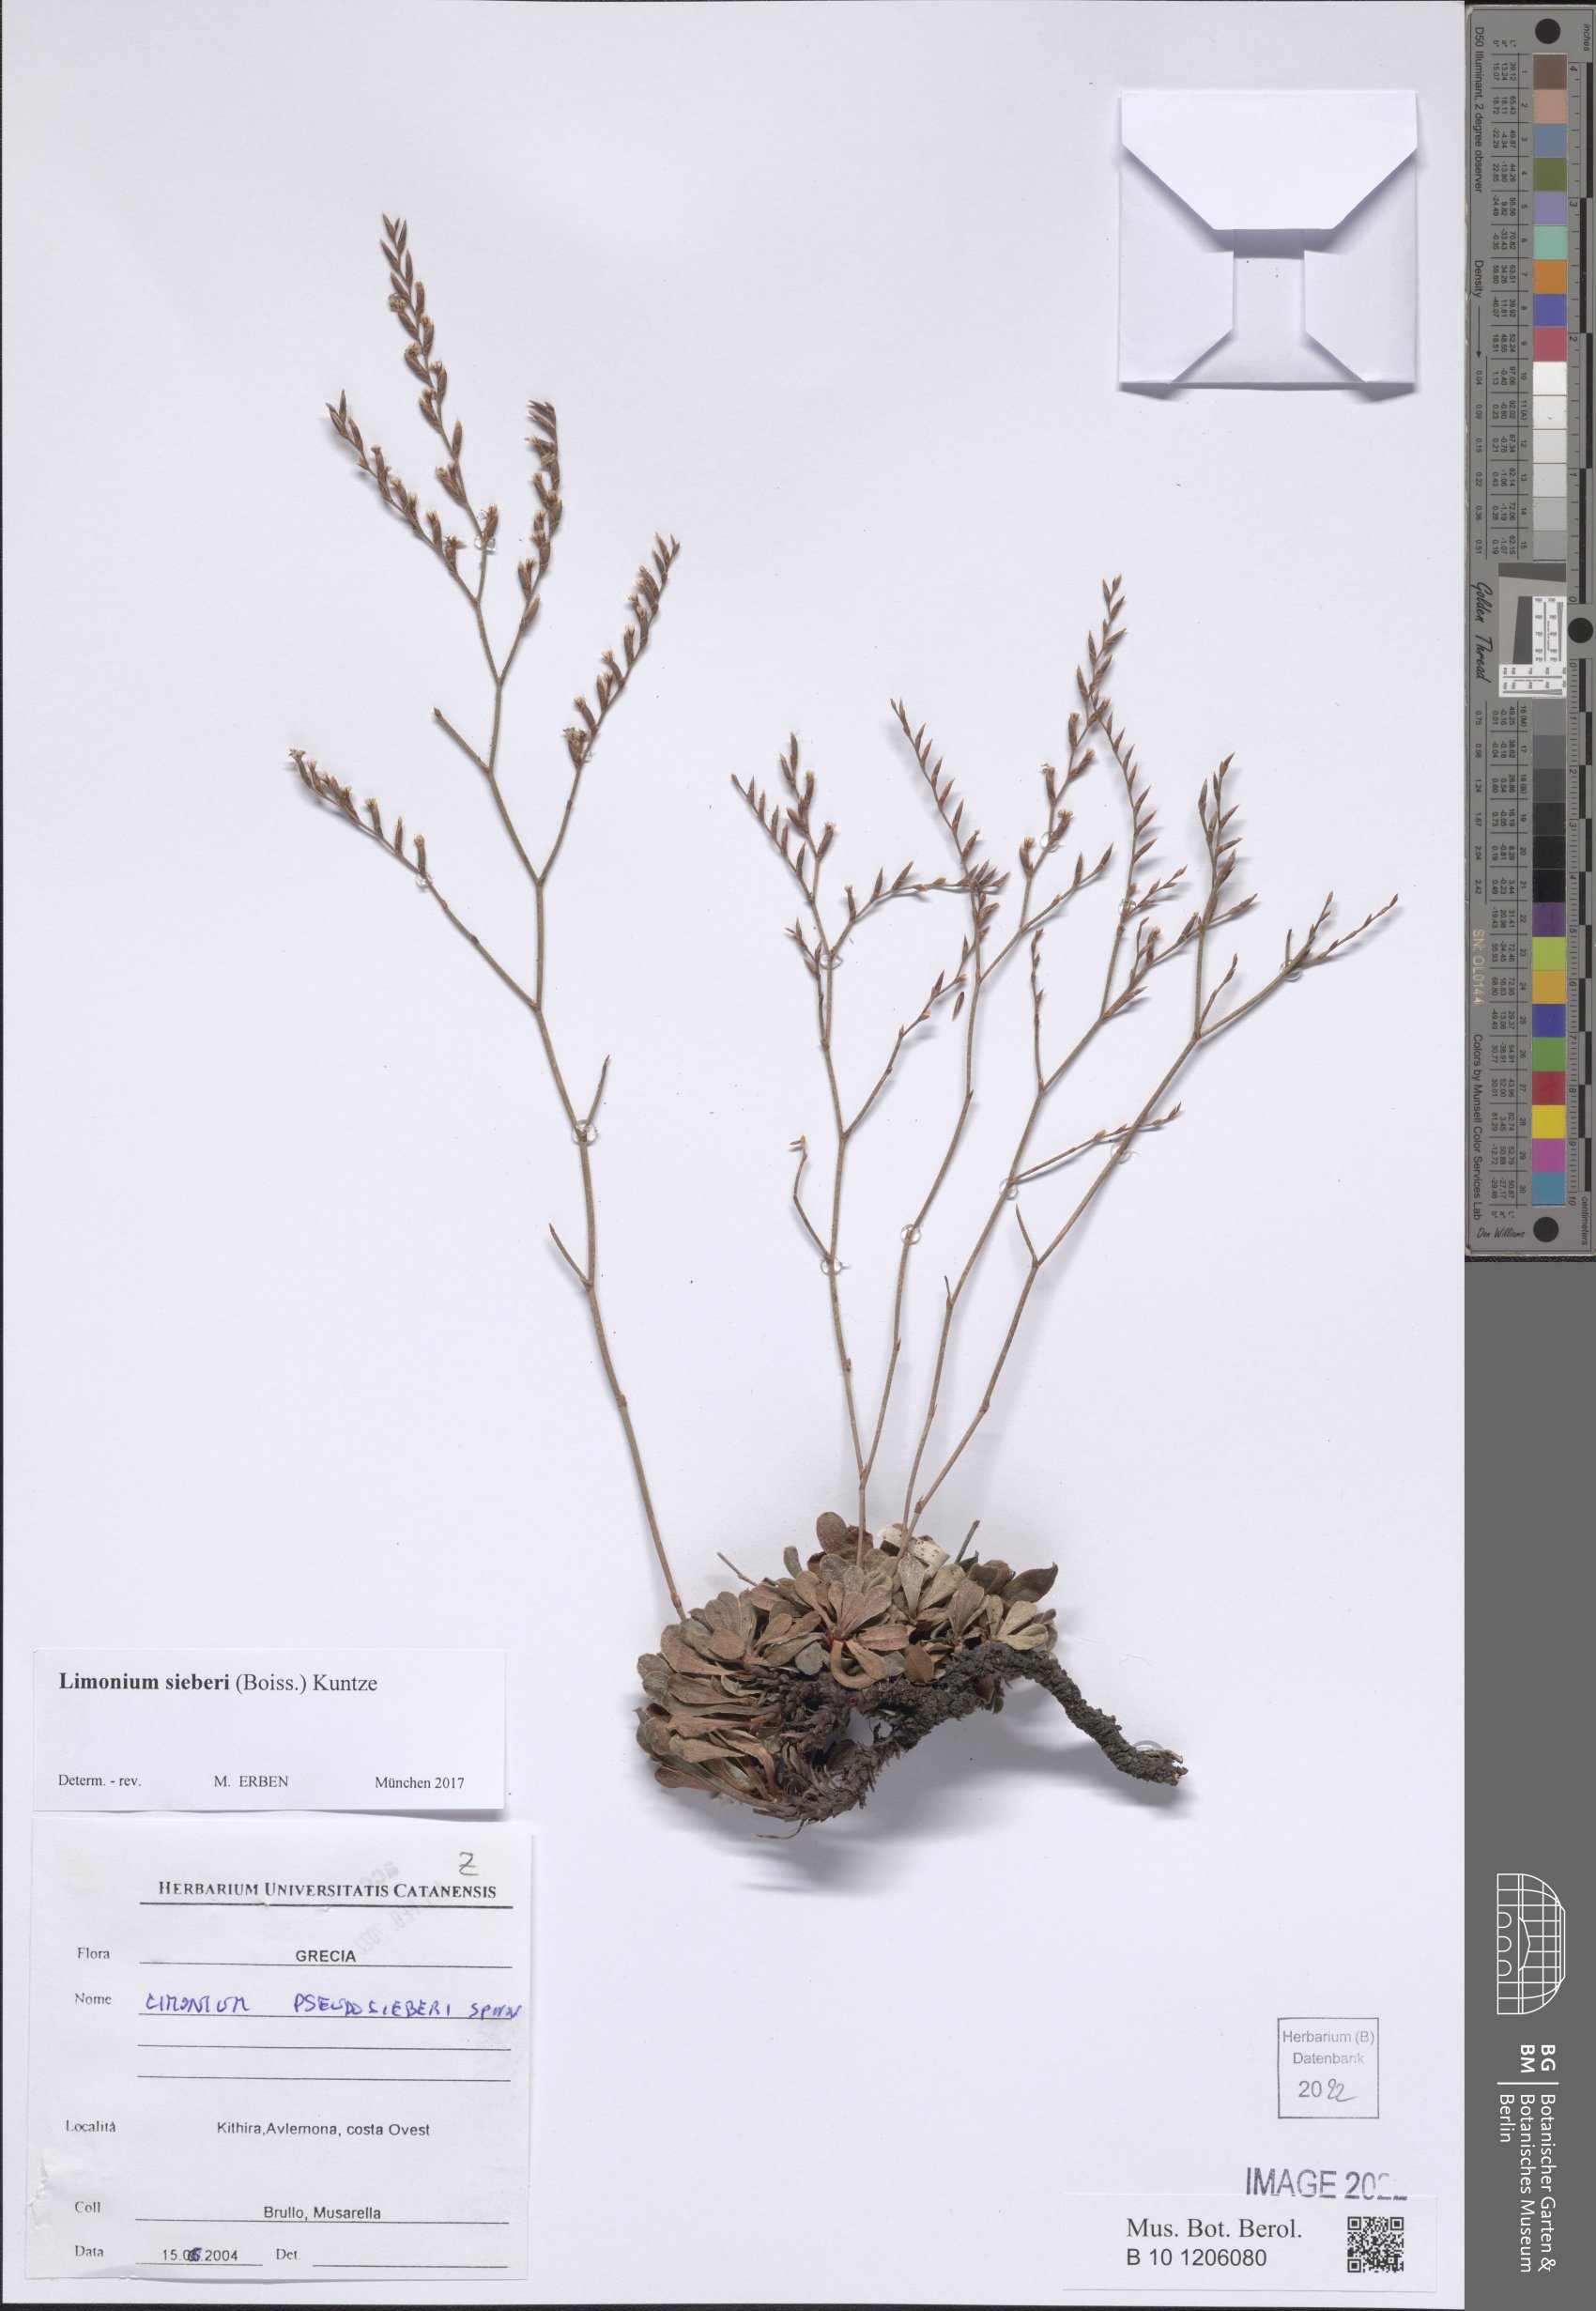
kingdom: Plantae
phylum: Tracheophyta
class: Magnoliopsida
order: Caryophyllales
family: Plumbaginaceae
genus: Limonium
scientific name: Limonium sieberi
